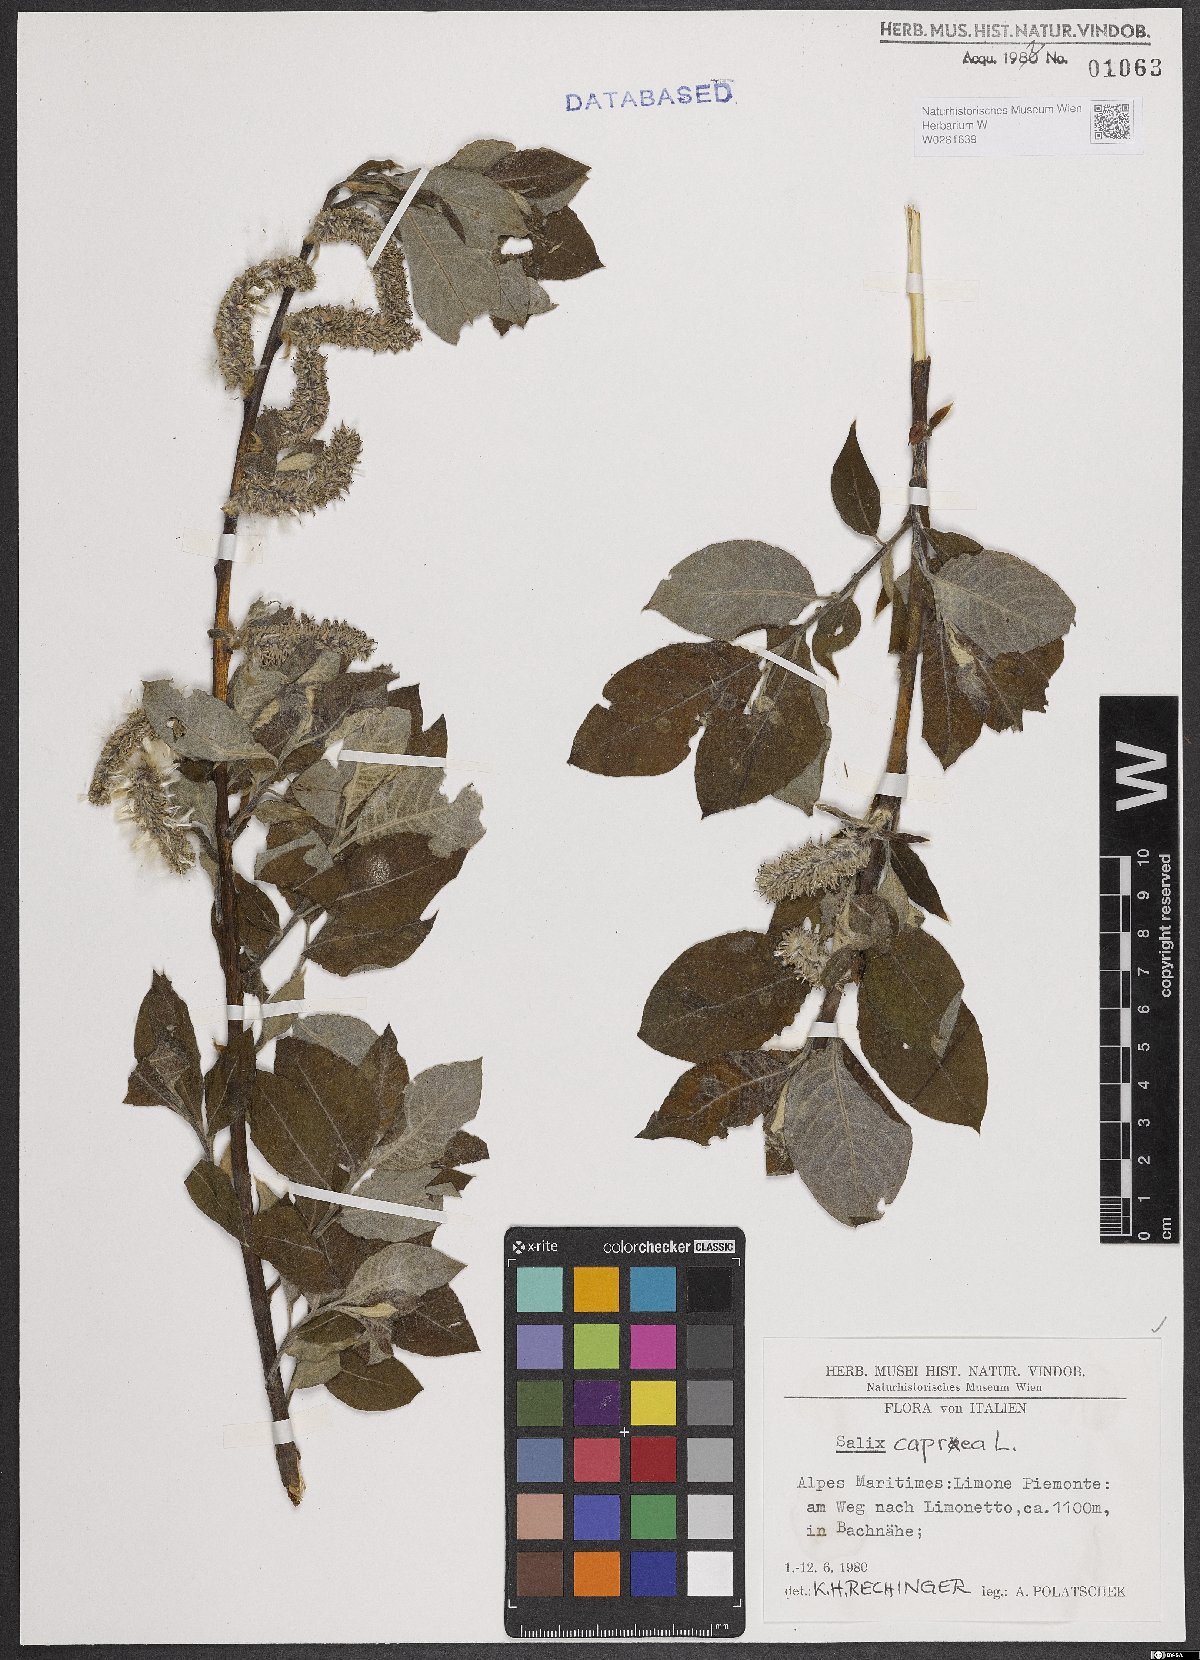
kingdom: Plantae
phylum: Tracheophyta
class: Magnoliopsida
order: Malpighiales
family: Salicaceae
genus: Salix
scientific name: Salix caprea
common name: Goat willow
